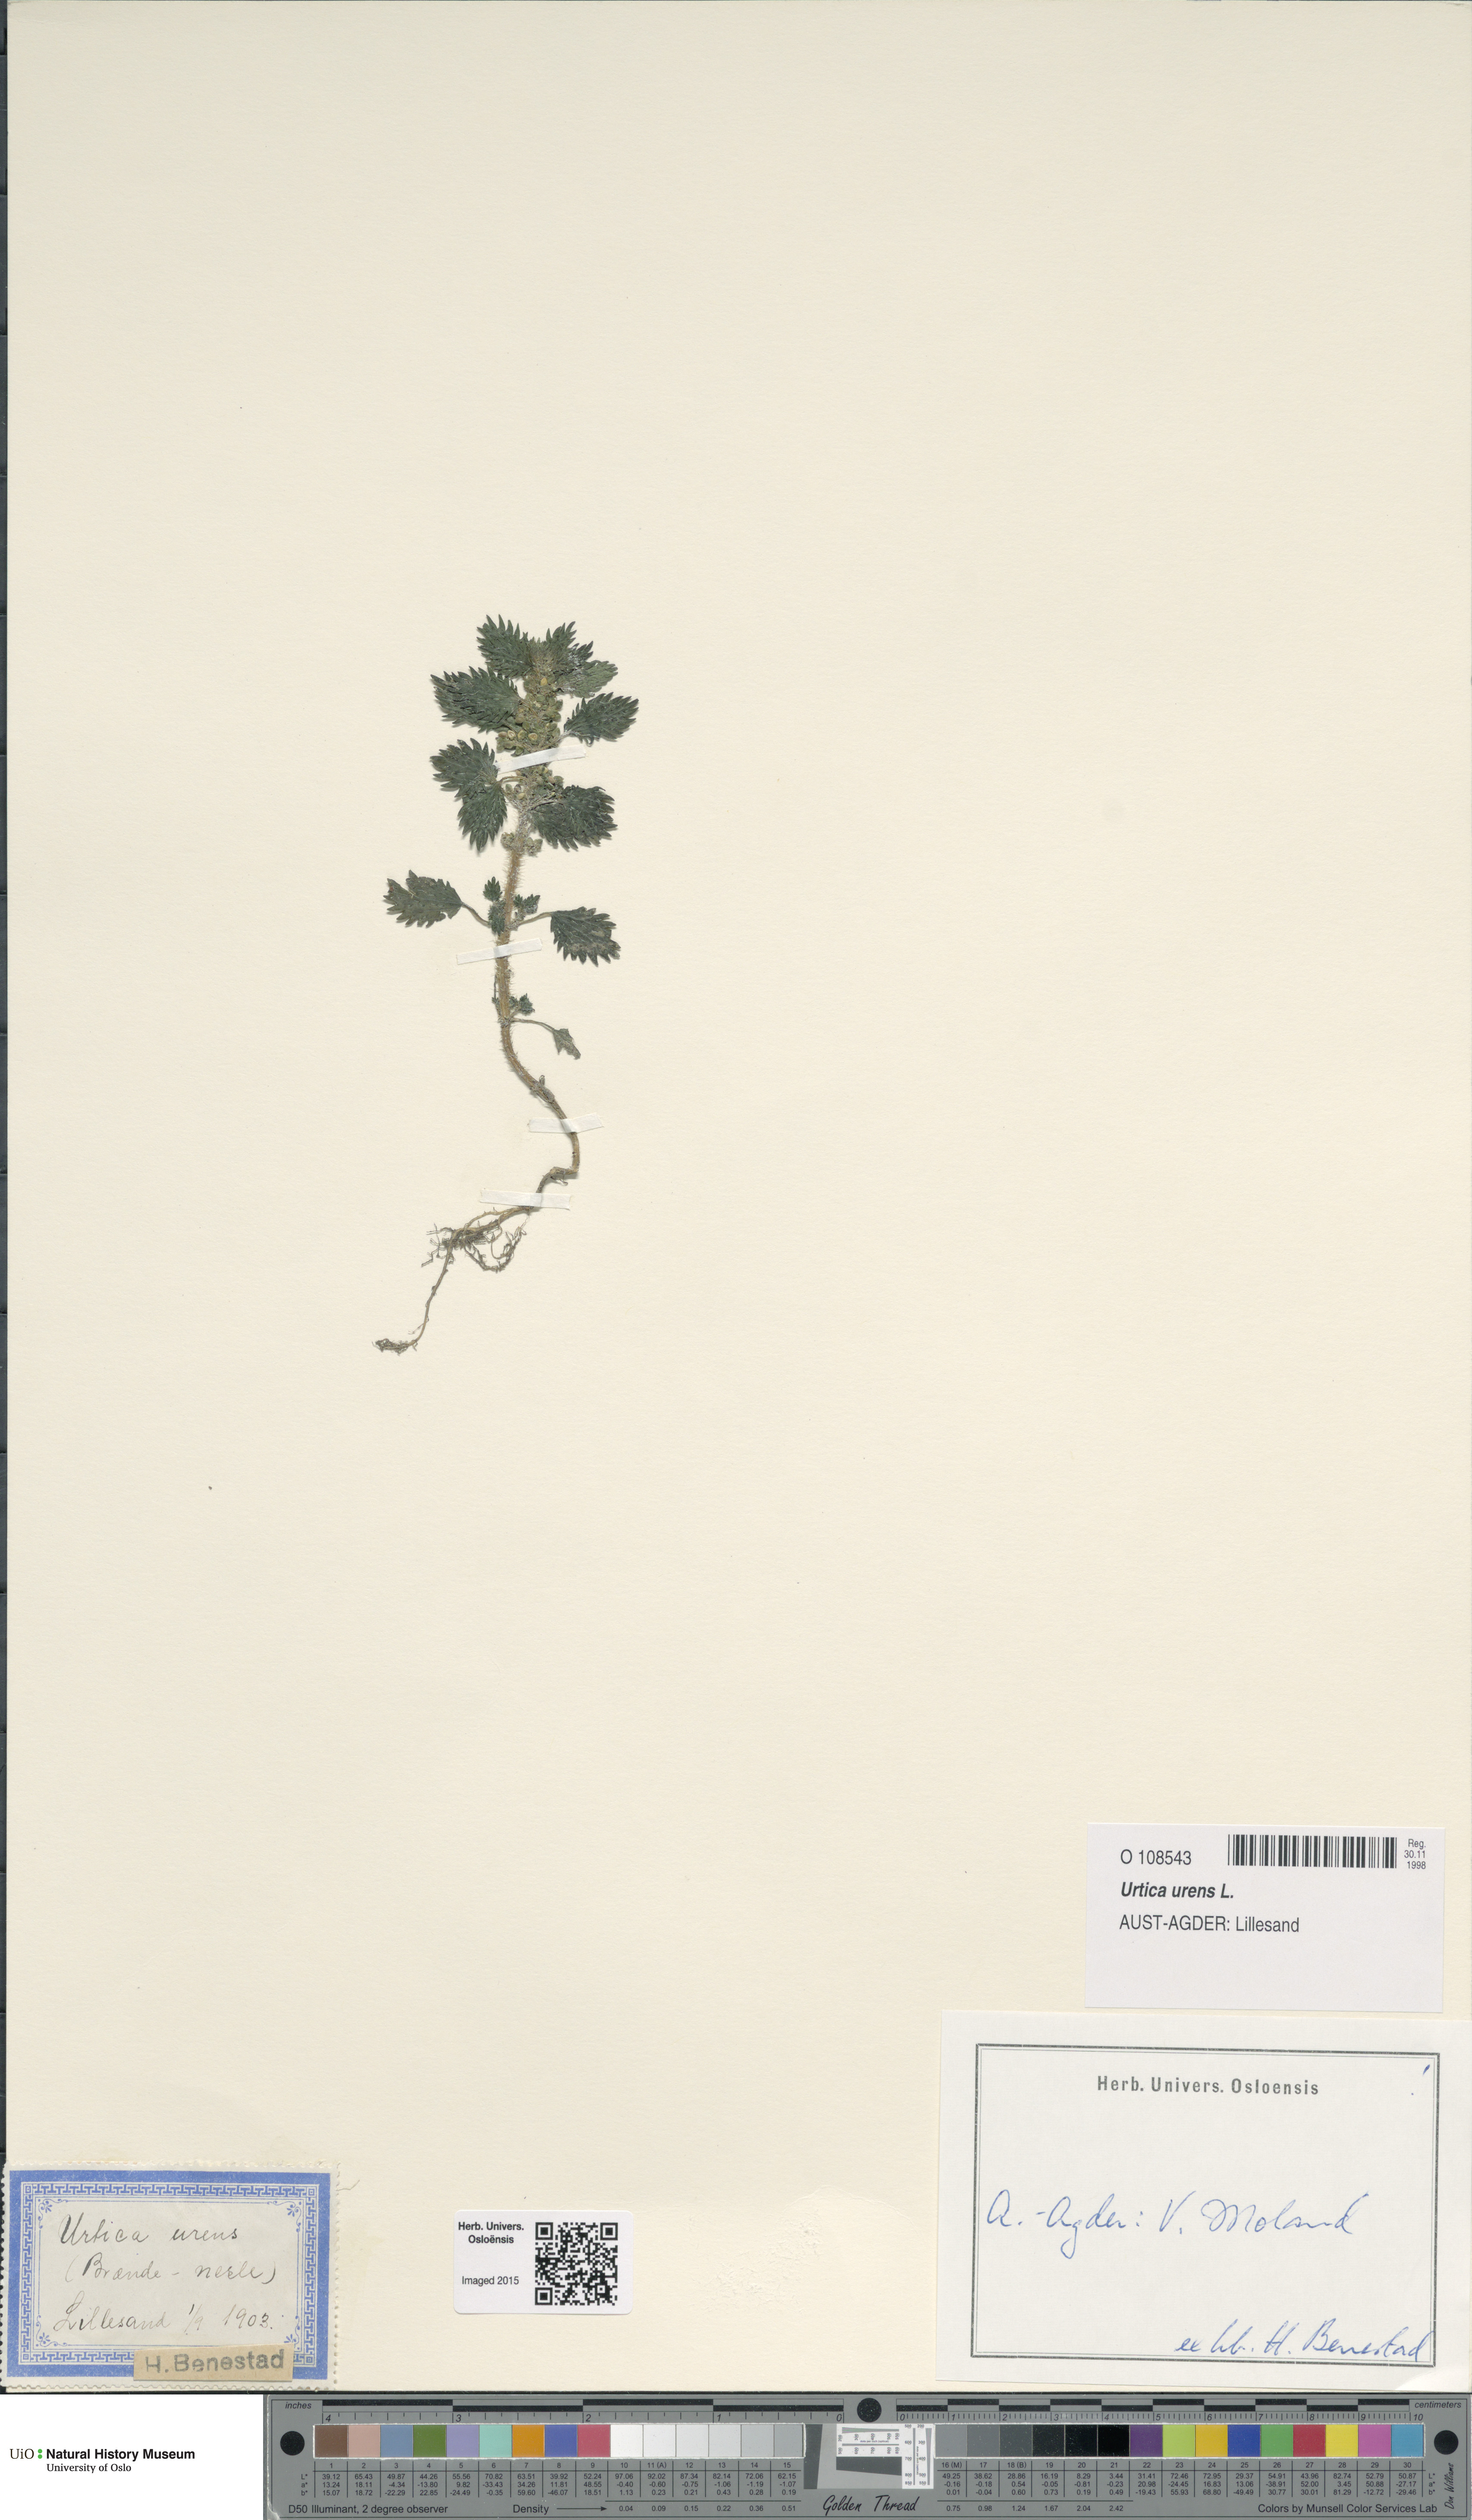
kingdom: Plantae
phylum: Tracheophyta
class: Magnoliopsida
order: Rosales
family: Urticaceae
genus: Urtica
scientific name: Urtica urens
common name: Dwarf nettle
